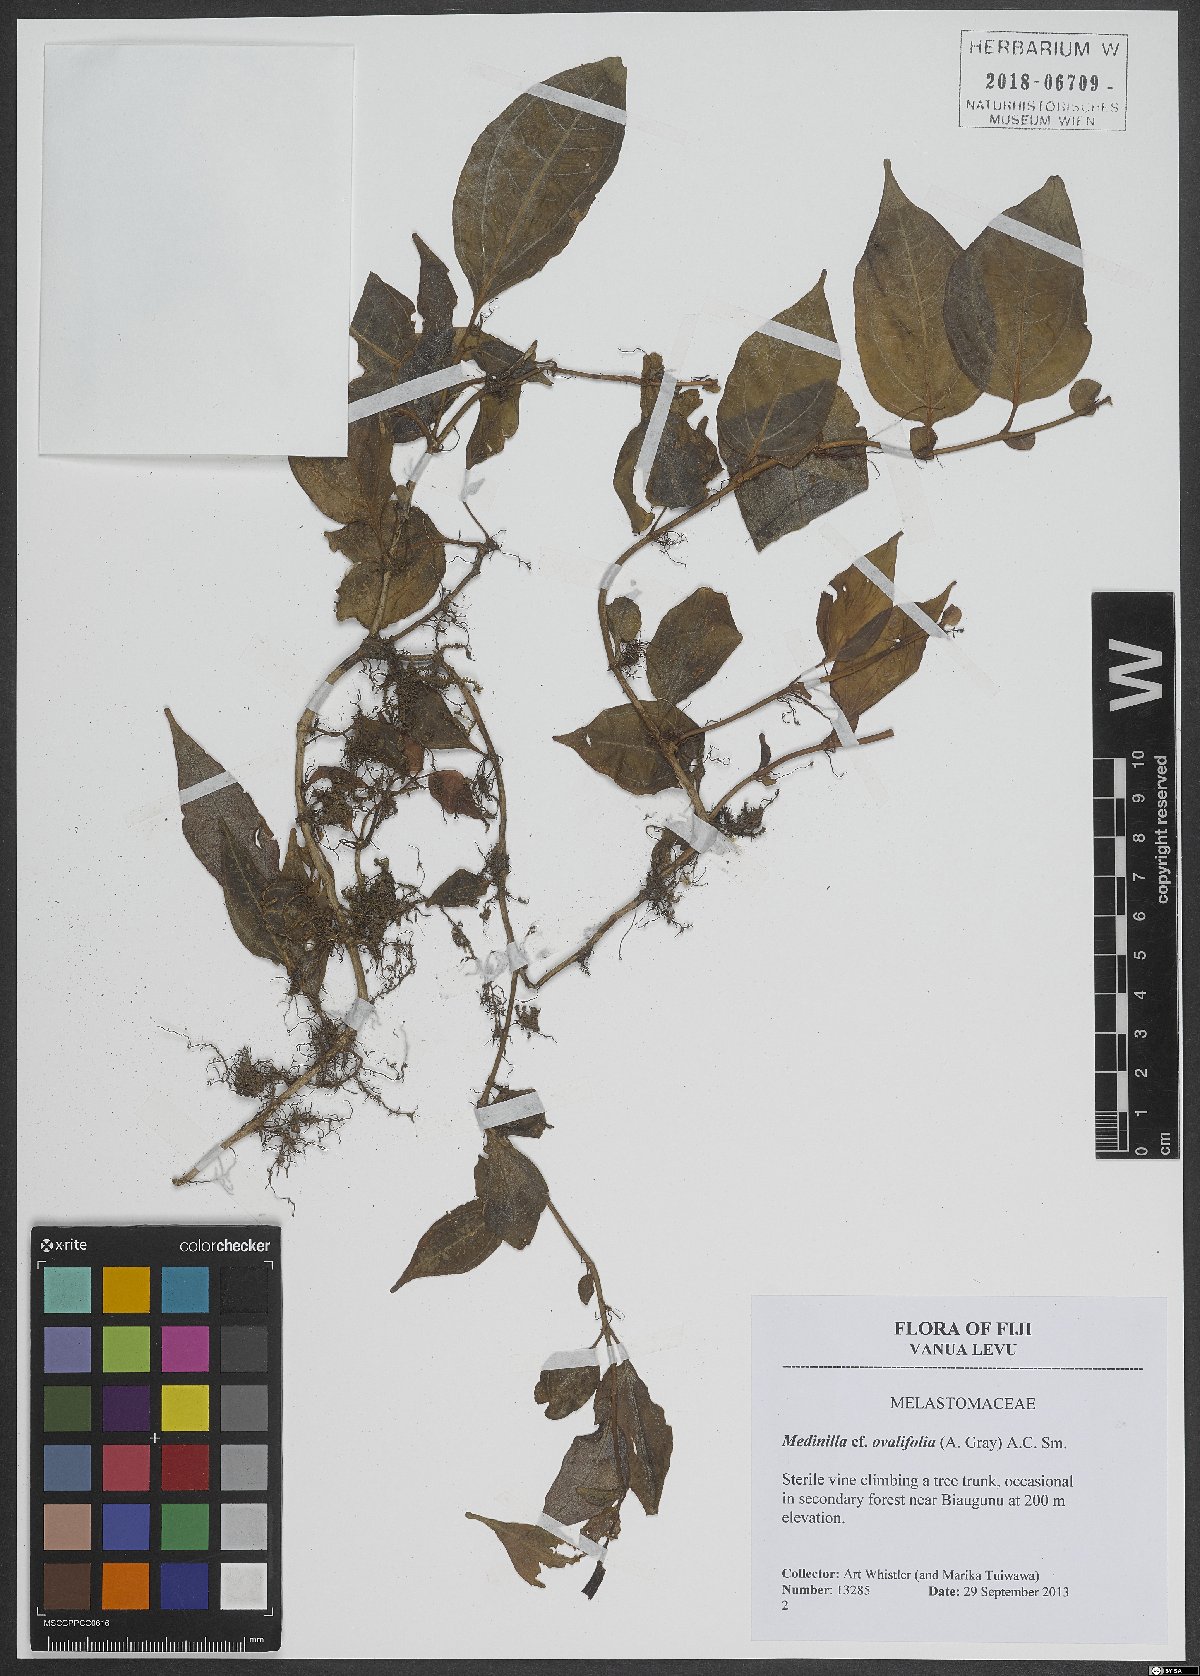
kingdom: Plantae
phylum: Tracheophyta
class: Magnoliopsida
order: Myrtales
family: Melastomataceae
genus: Medinilla
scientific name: Medinilla ovalifolia
